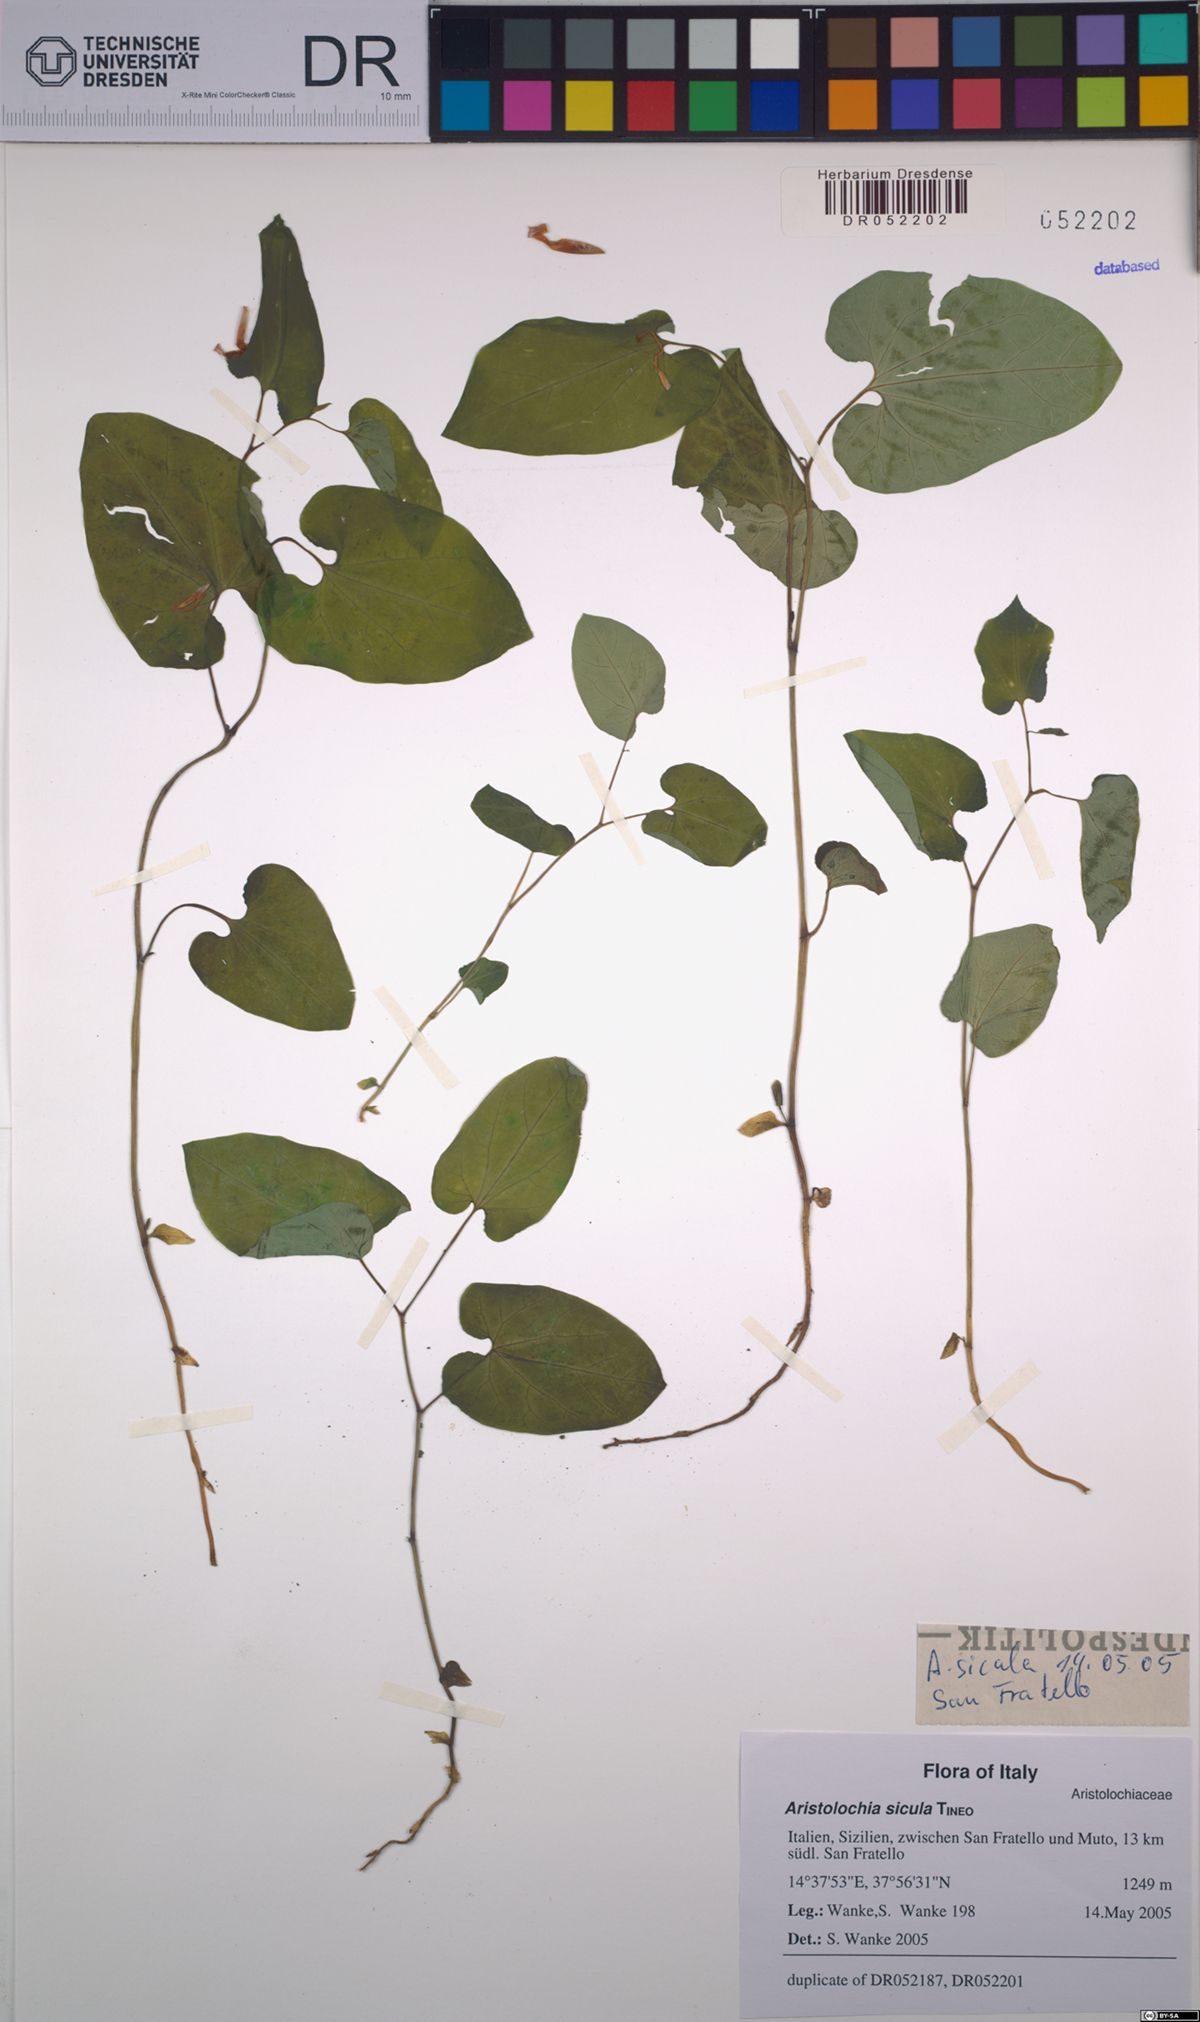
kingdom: Plantae
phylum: Tracheophyta
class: Magnoliopsida
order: Piperales
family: Aristolochiaceae
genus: Aristolochia
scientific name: Aristolochia sicula
